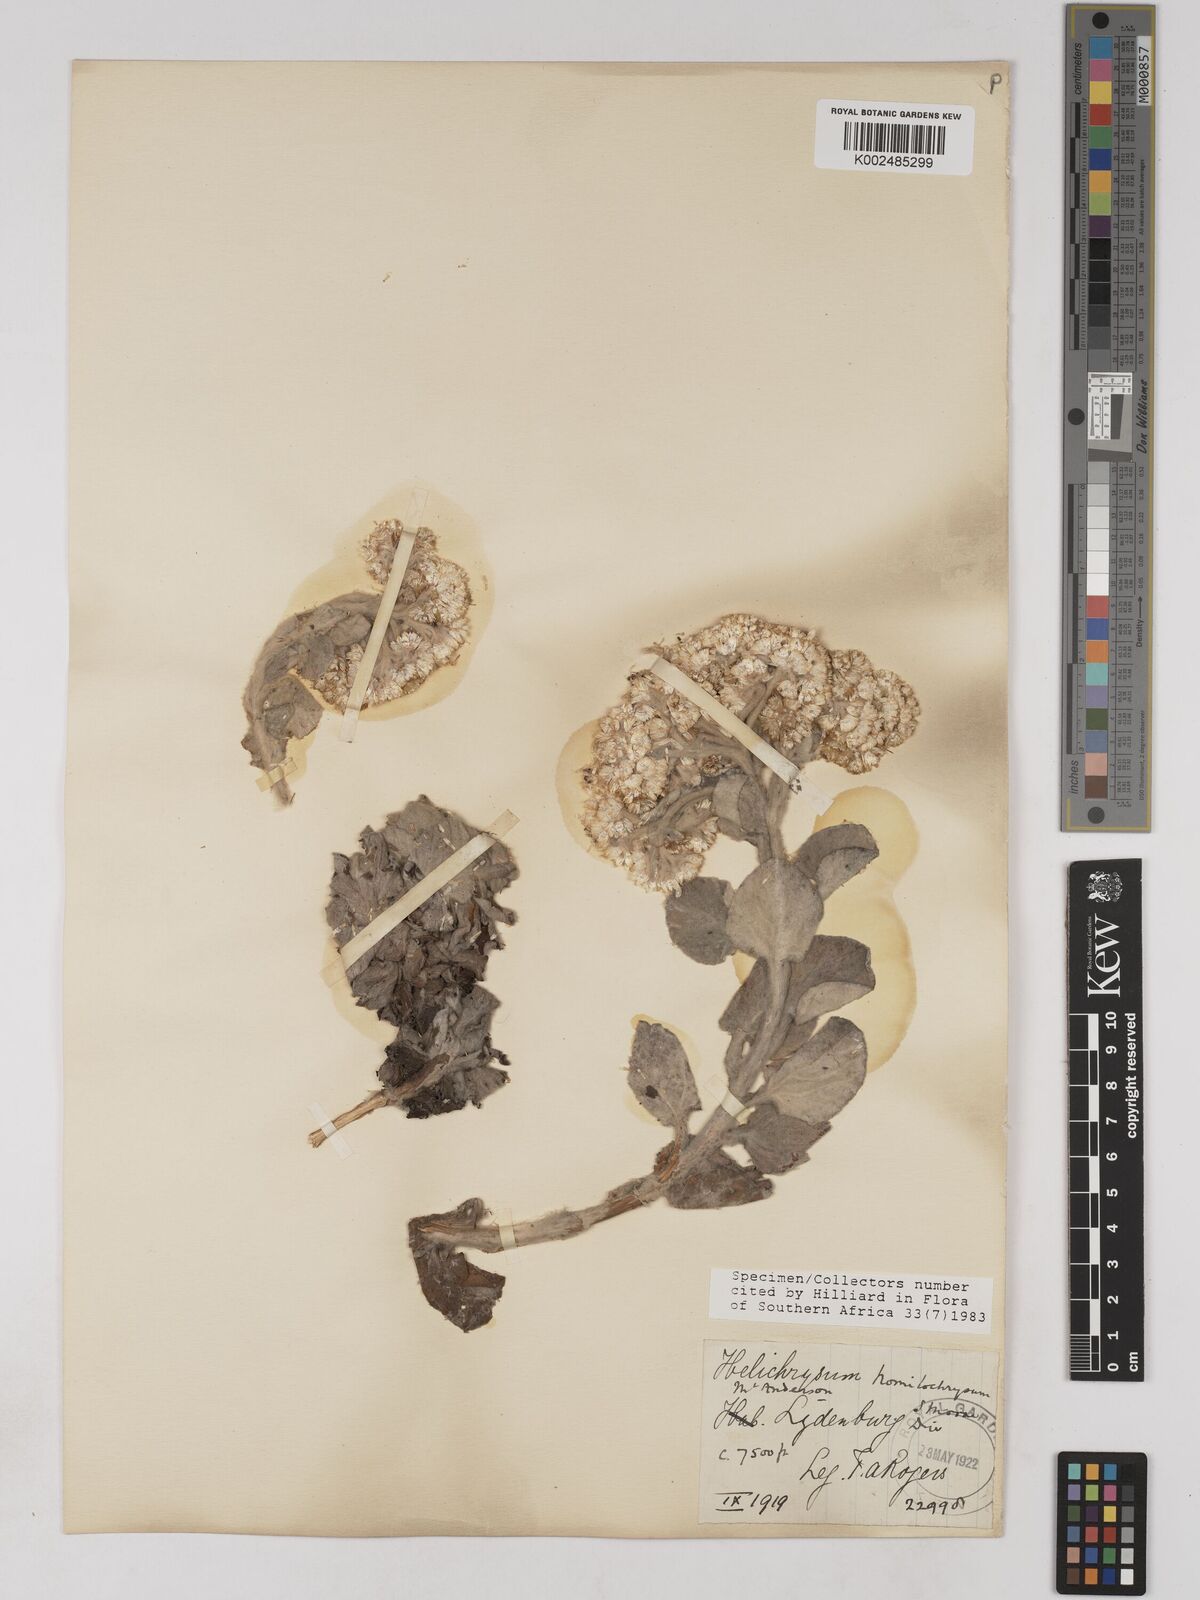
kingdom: Plantae
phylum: Tracheophyta
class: Magnoliopsida
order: Asterales
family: Asteraceae
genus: Helichrysum
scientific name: Helichrysum homilochrysum
